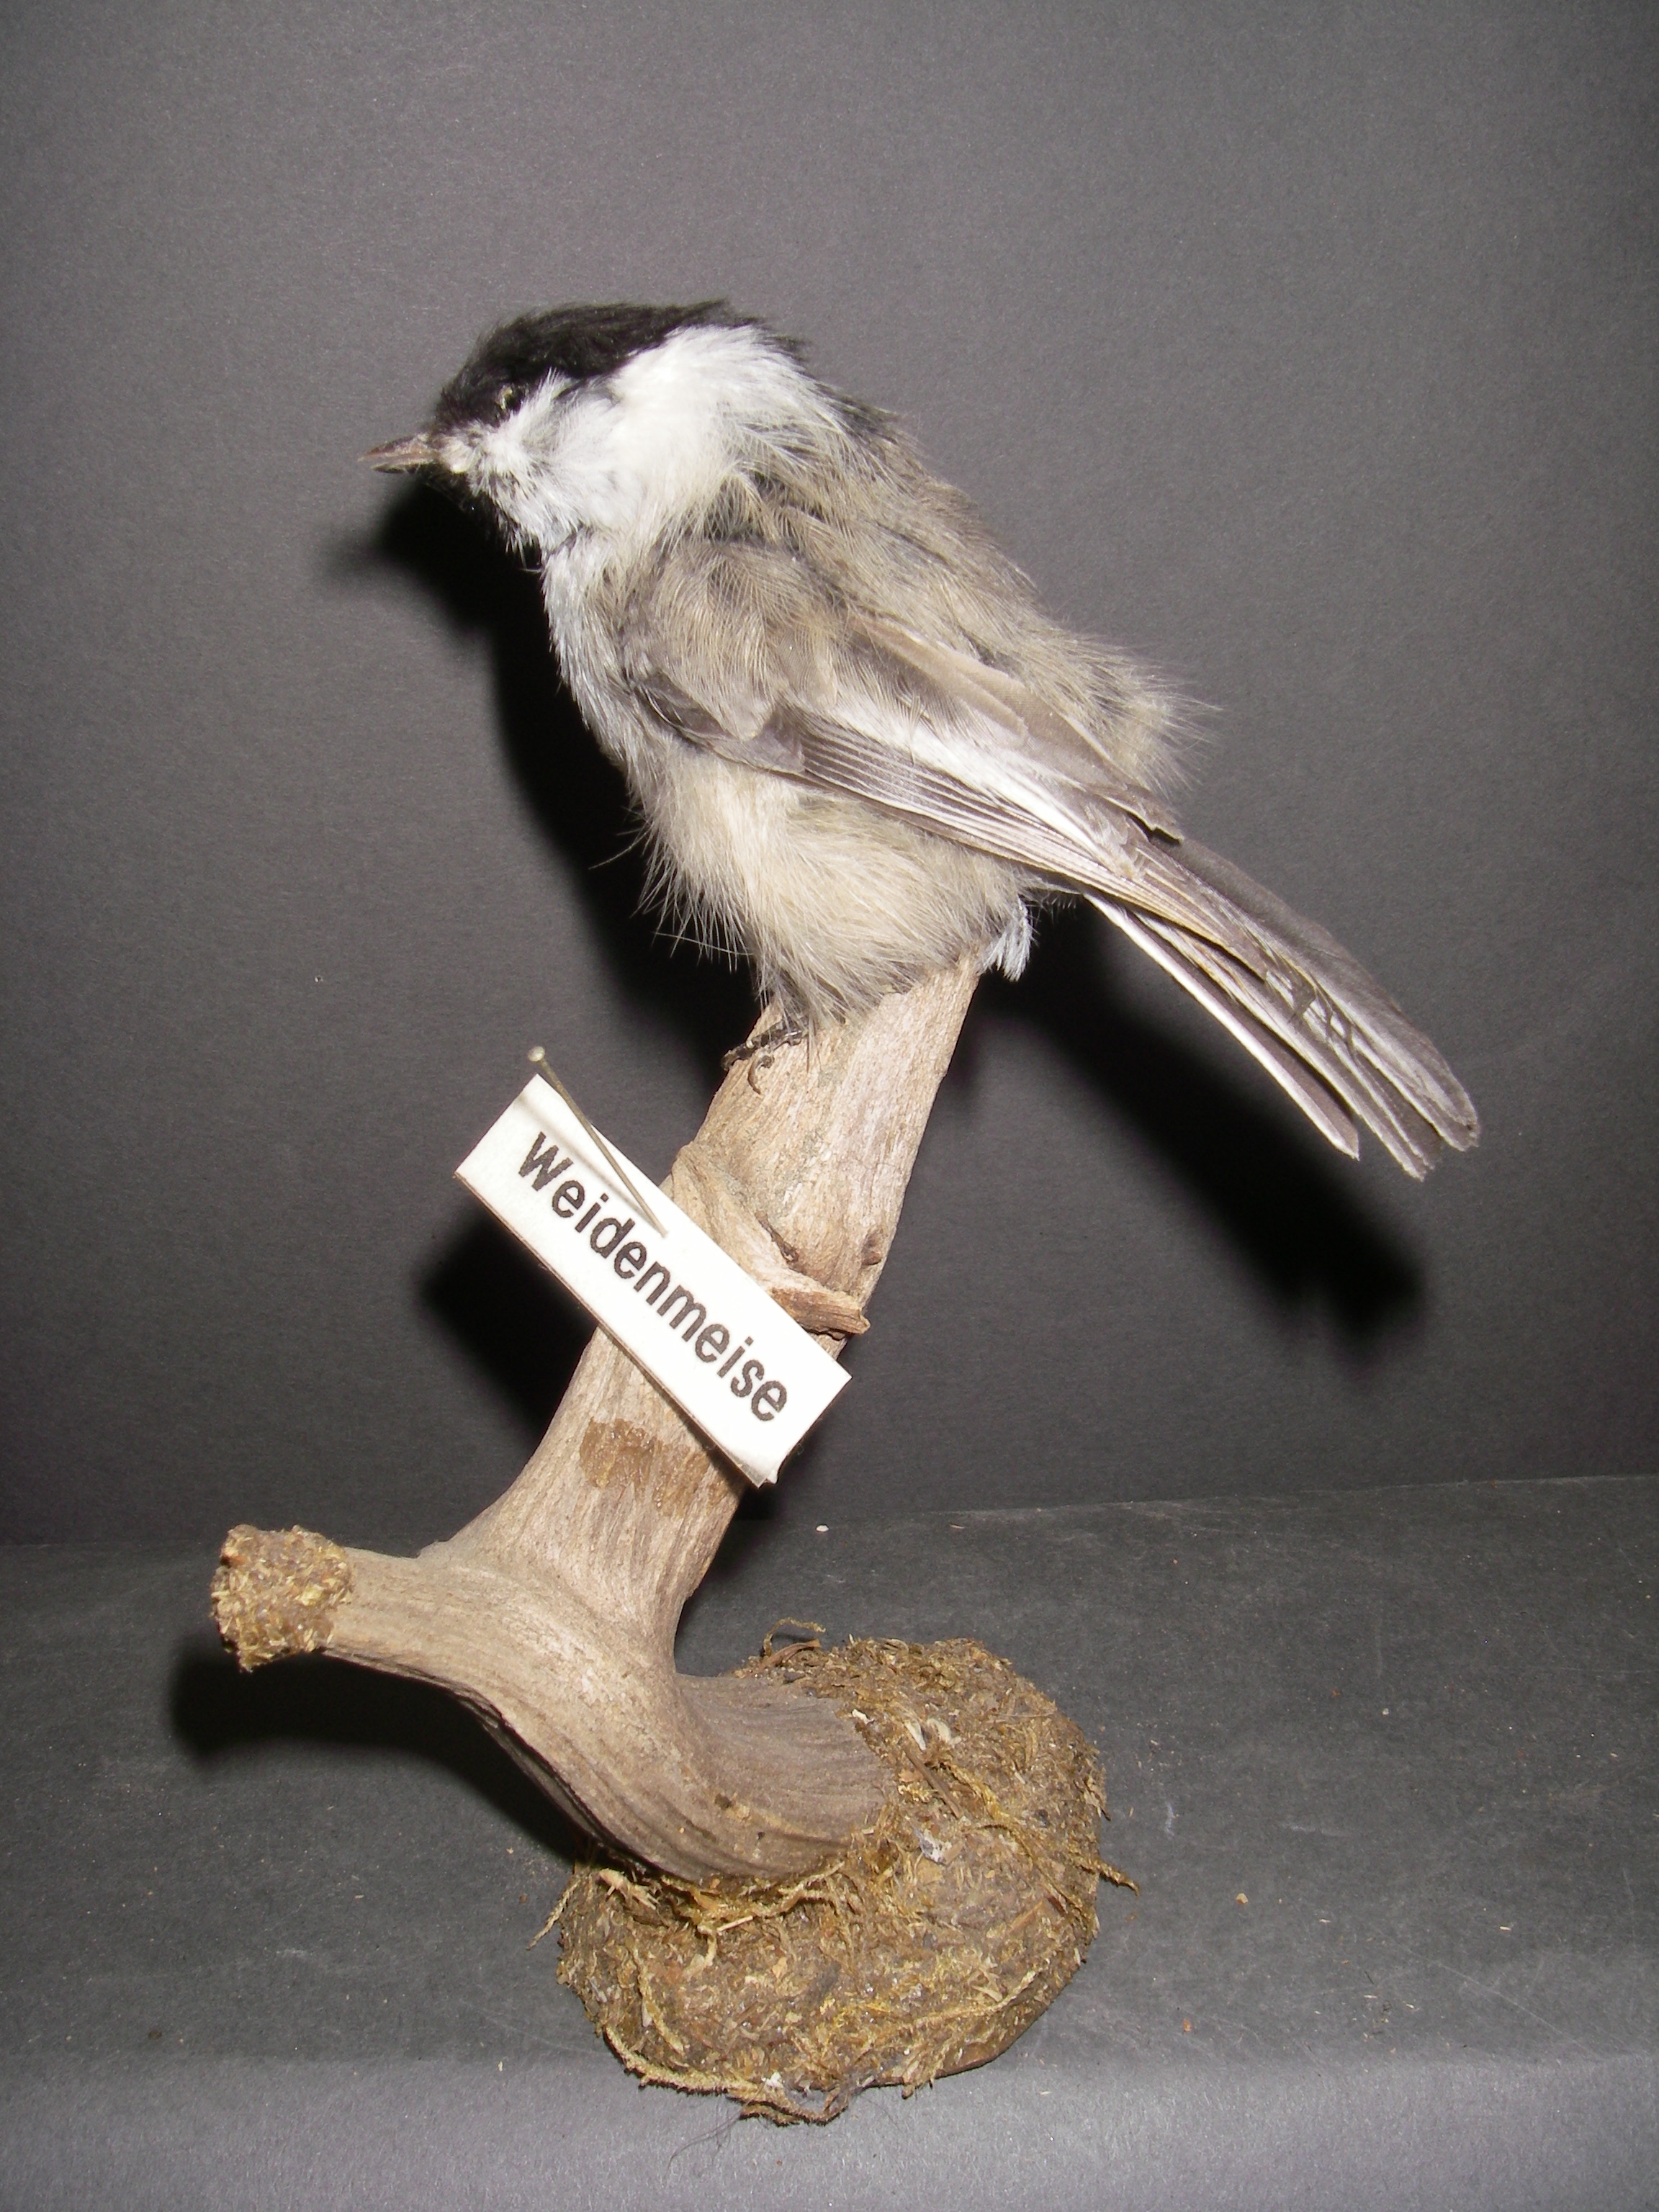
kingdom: Animalia
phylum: Chordata
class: Aves
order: Passeriformes
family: Paridae
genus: Parus
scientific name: Parus montanus
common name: Willow tit
